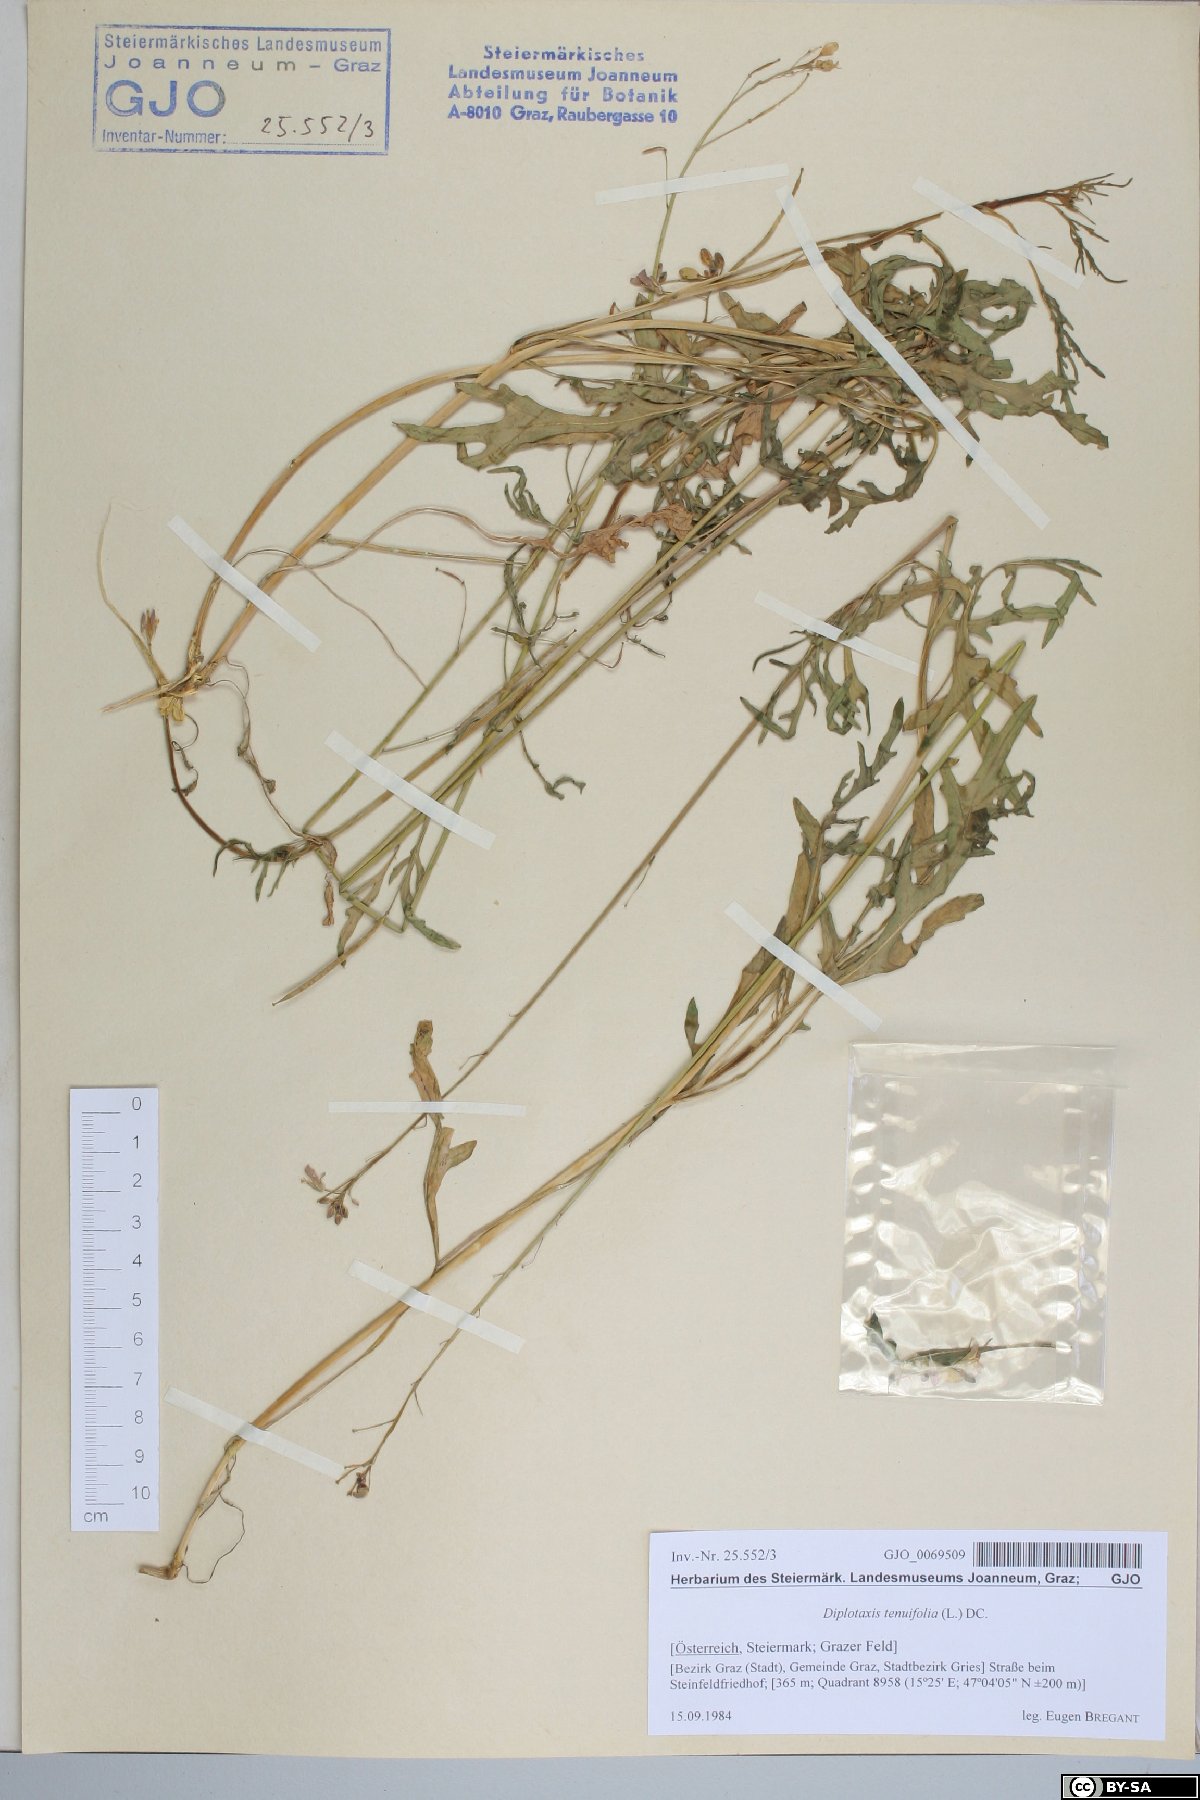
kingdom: Plantae
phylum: Tracheophyta
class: Magnoliopsida
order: Brassicales
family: Brassicaceae
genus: Diplotaxis
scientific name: Diplotaxis tenuifolia
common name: Perennial wall-rocket
